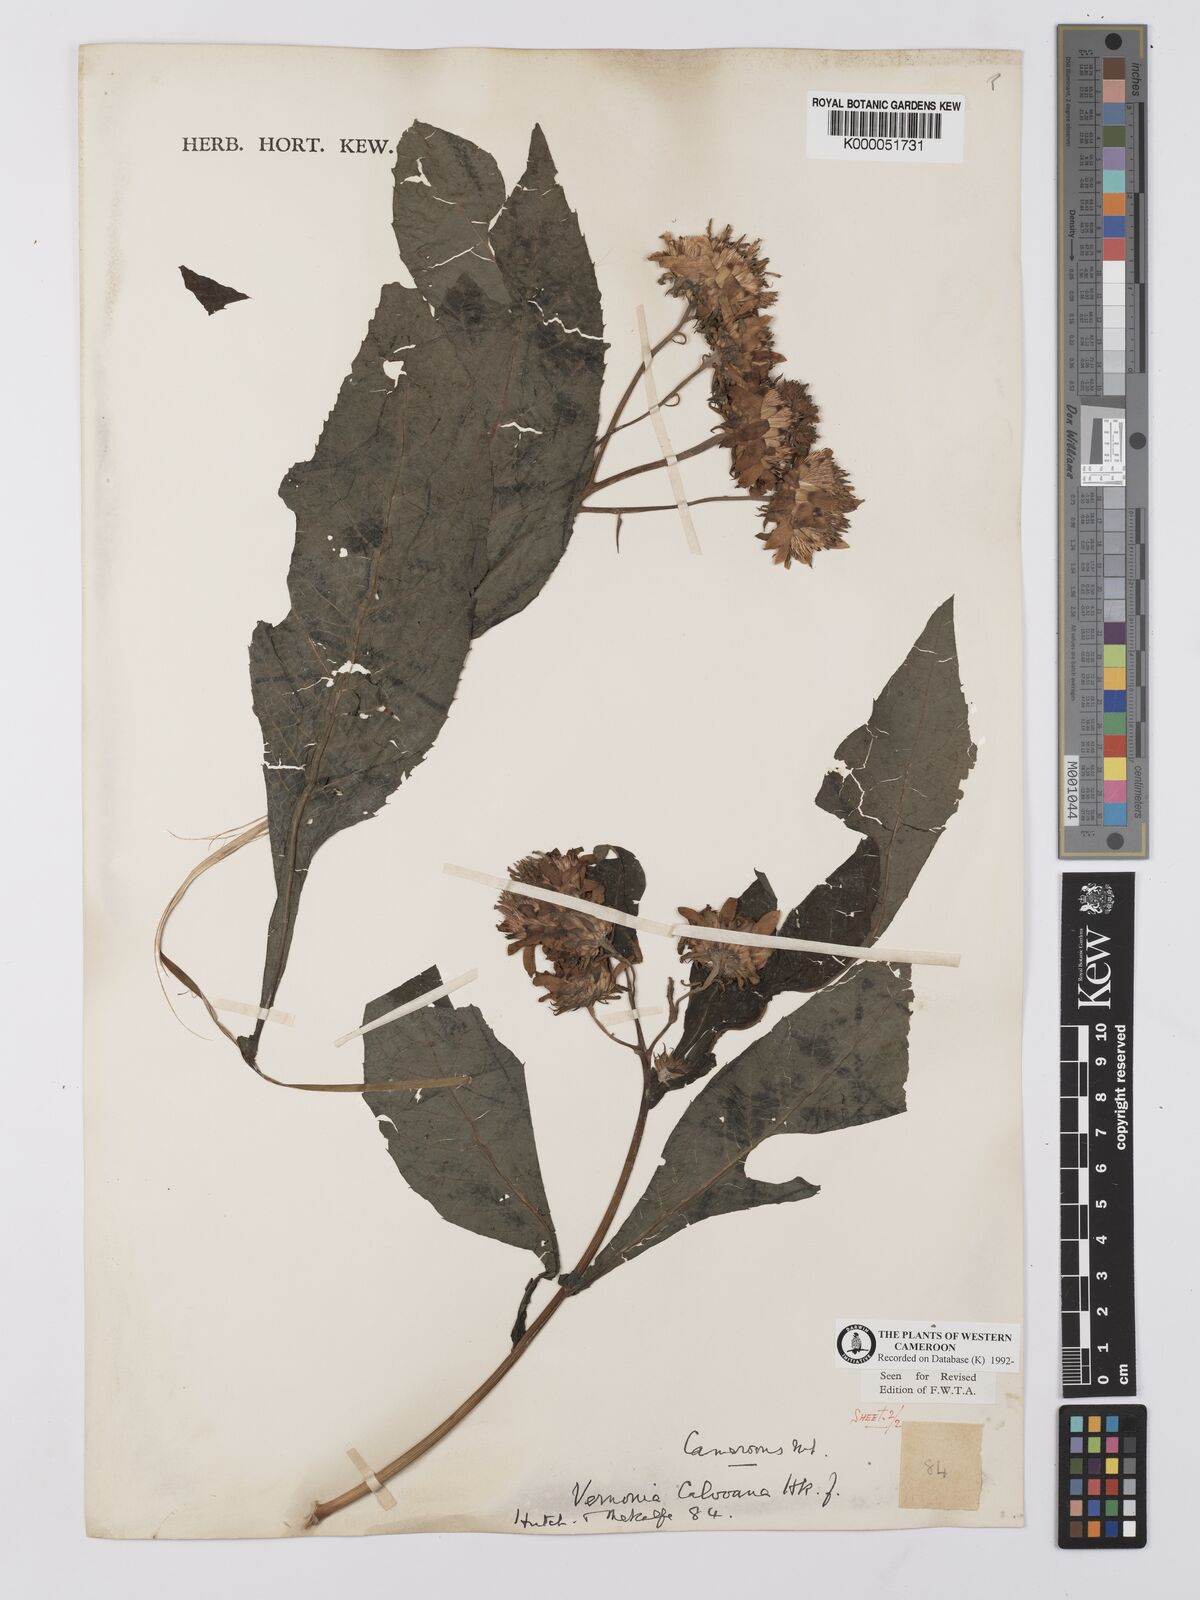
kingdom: Plantae
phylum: Tracheophyta
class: Magnoliopsida
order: Asterales
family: Asteraceae
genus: Baccharoides
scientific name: Baccharoides hymenolepis
